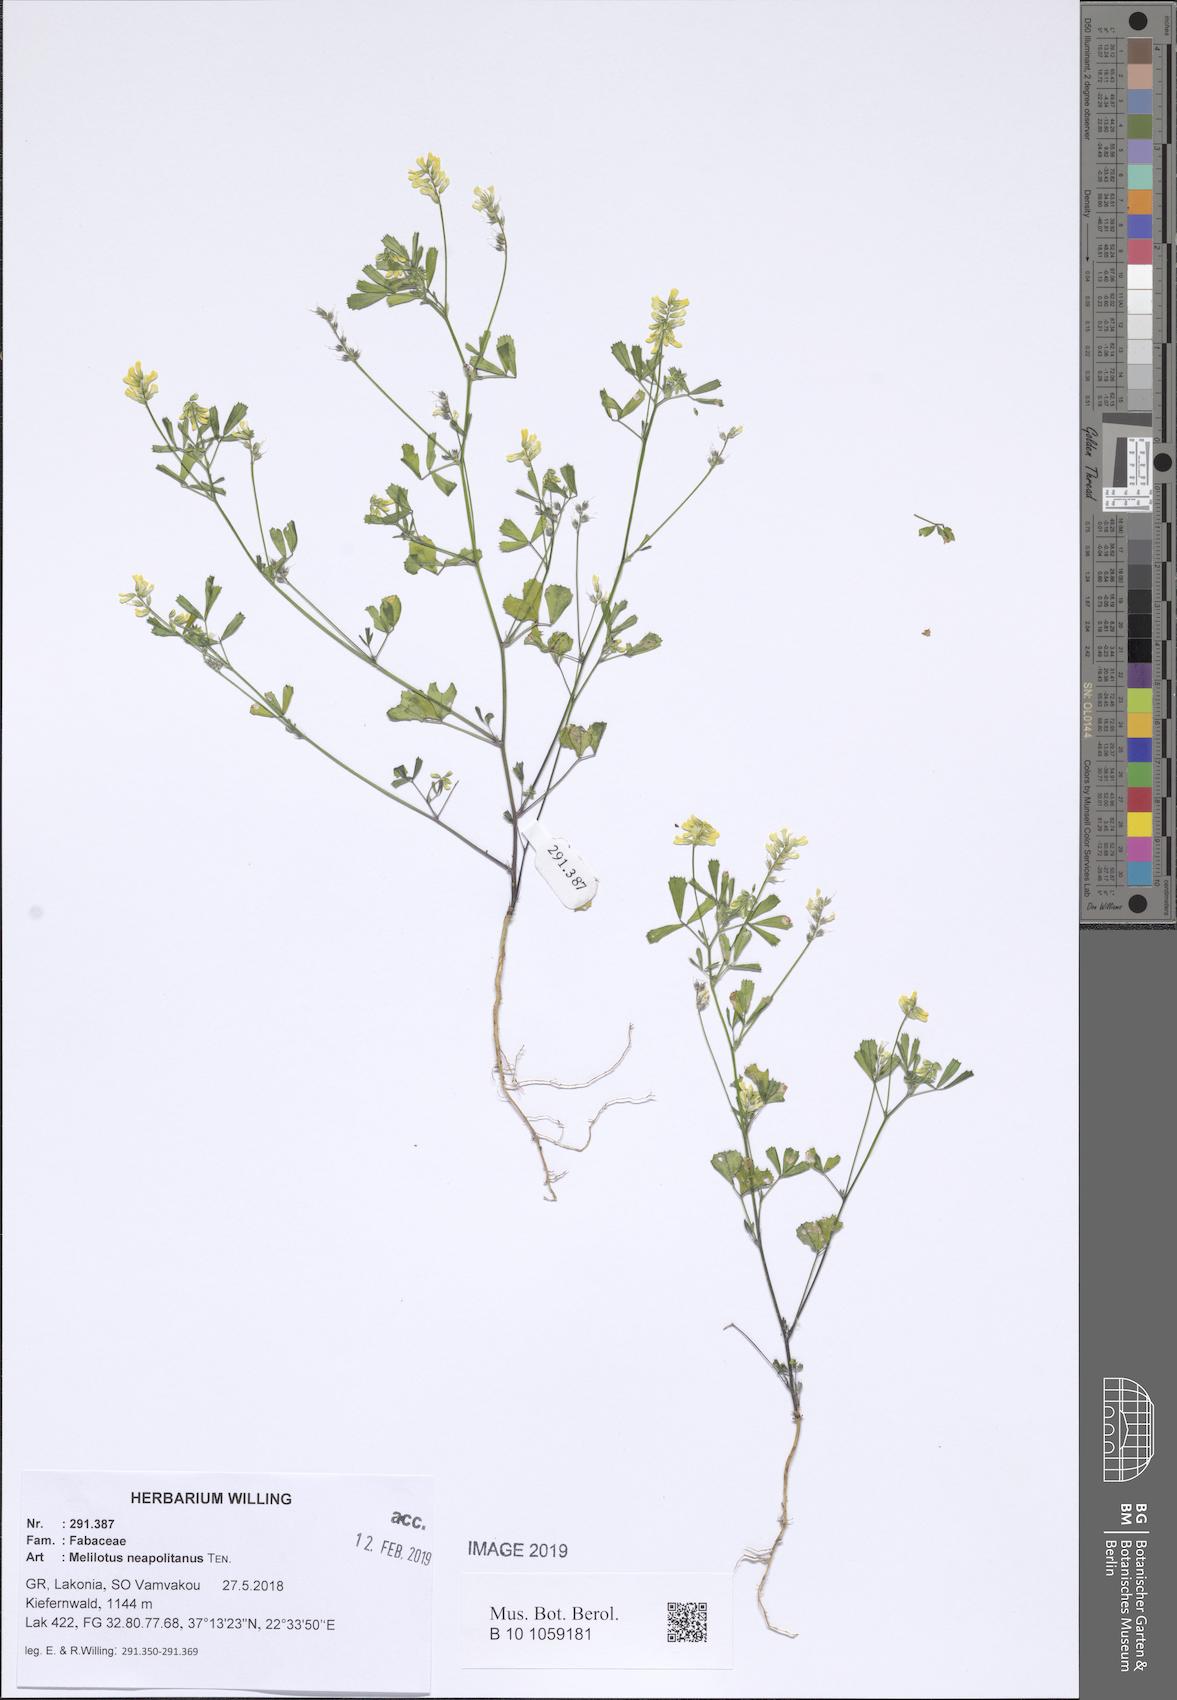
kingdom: Plantae
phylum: Tracheophyta
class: Magnoliopsida
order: Fabales
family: Fabaceae
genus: Melilotus
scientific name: Melilotus neapolitanus
